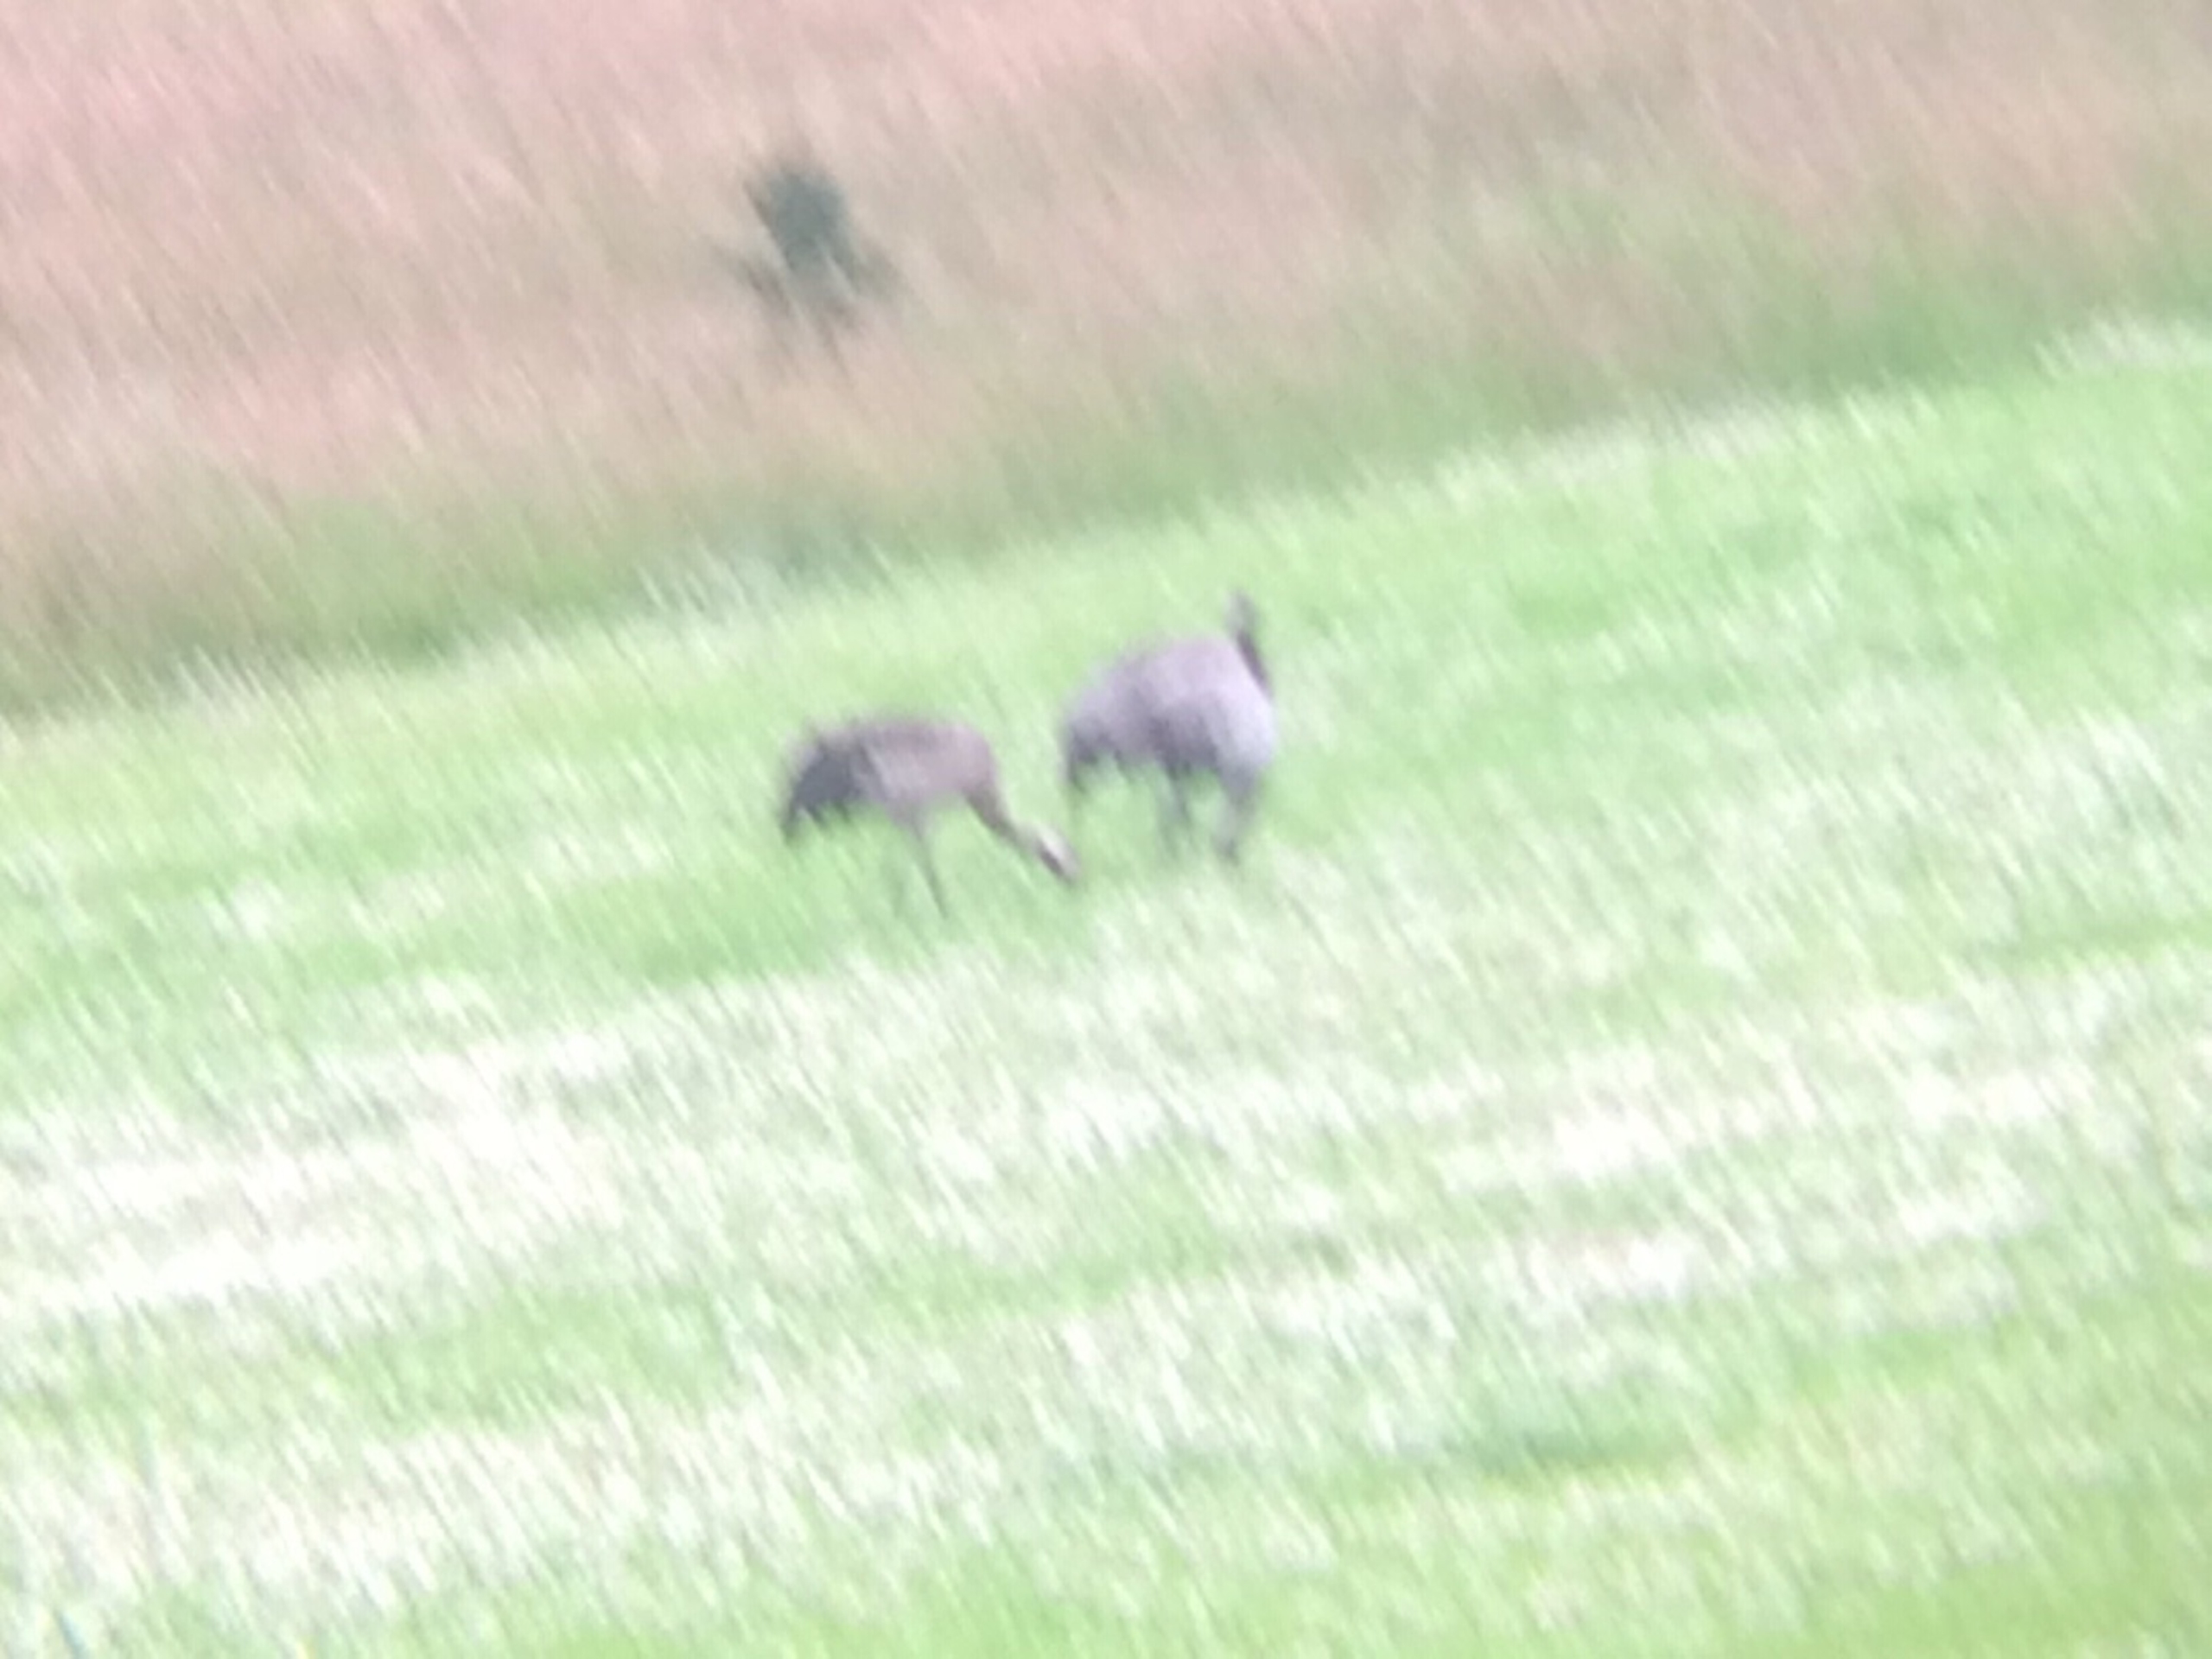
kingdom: Animalia
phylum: Chordata
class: Aves
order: Gruiformes
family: Gruidae
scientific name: Gruidae
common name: Traner
